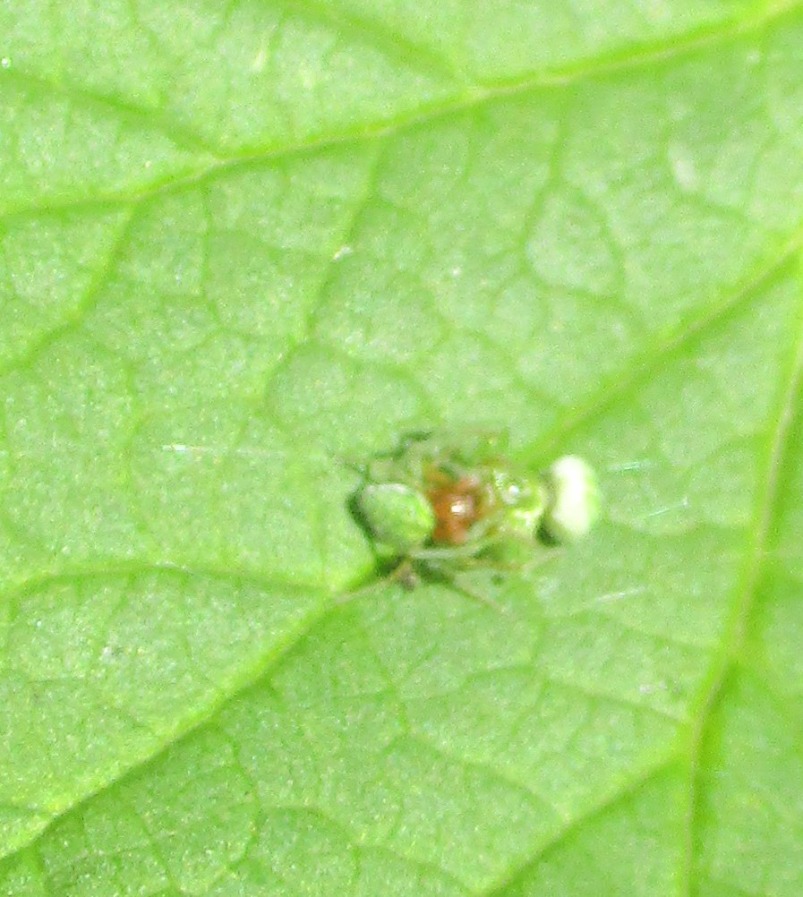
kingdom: Animalia
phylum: Arthropoda
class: Arachnida
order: Araneae
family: Dictynidae
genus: Nigma
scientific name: Nigma walckenaeri
